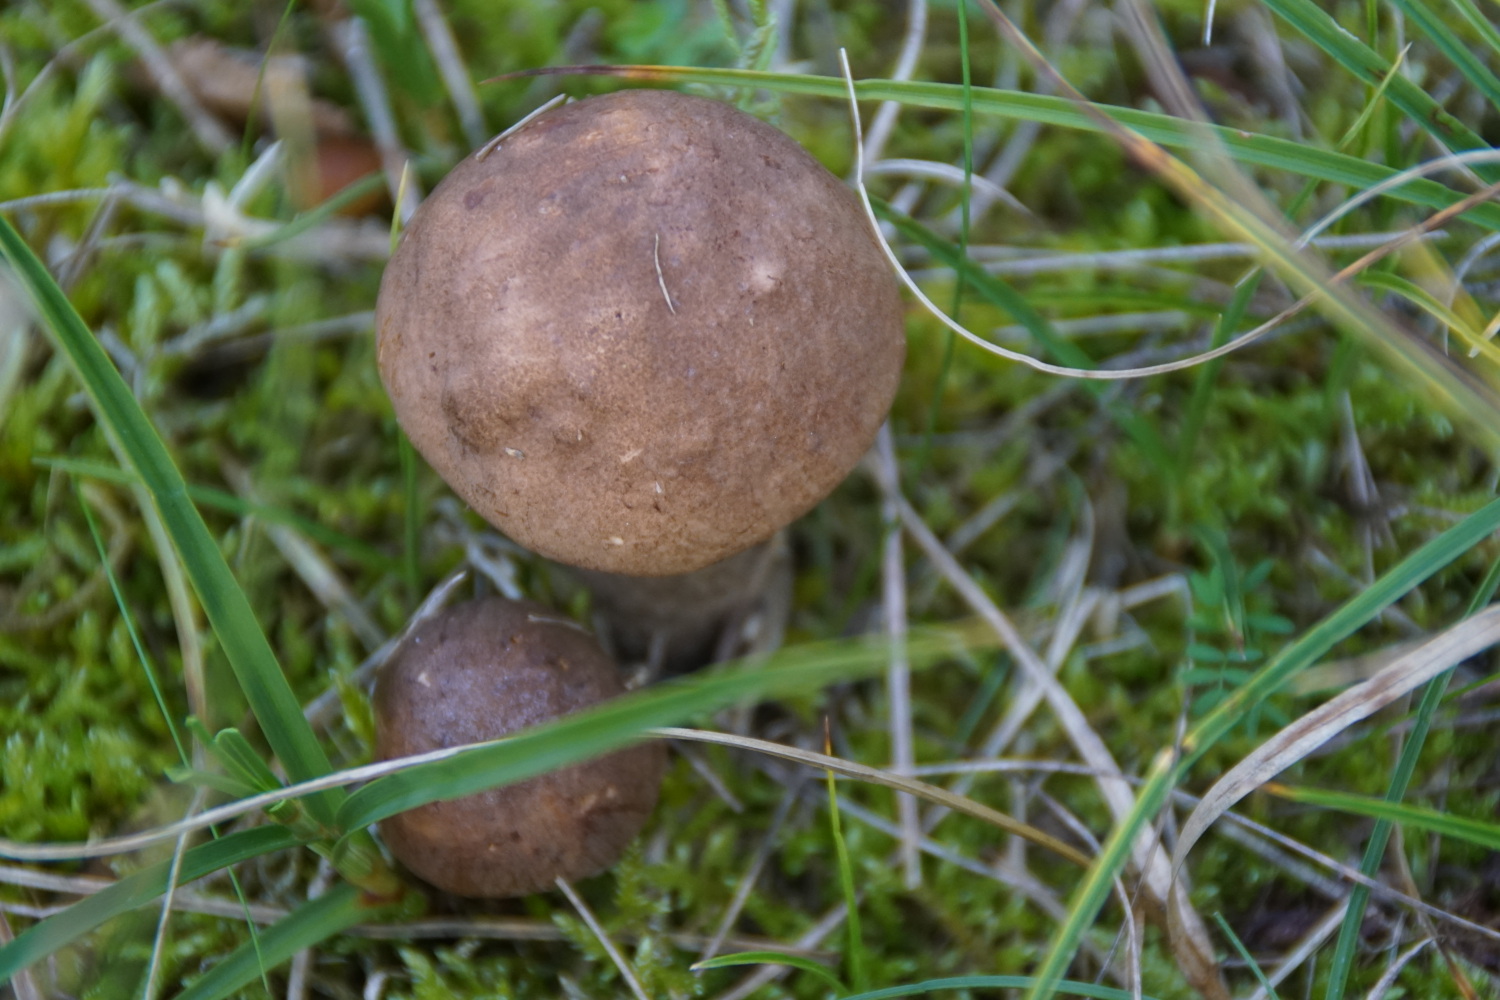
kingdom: Fungi
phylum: Basidiomycota
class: Agaricomycetes
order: Boletales
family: Boletaceae
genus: Leccinum
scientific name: Leccinum scabrum
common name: brun skælrørhat
